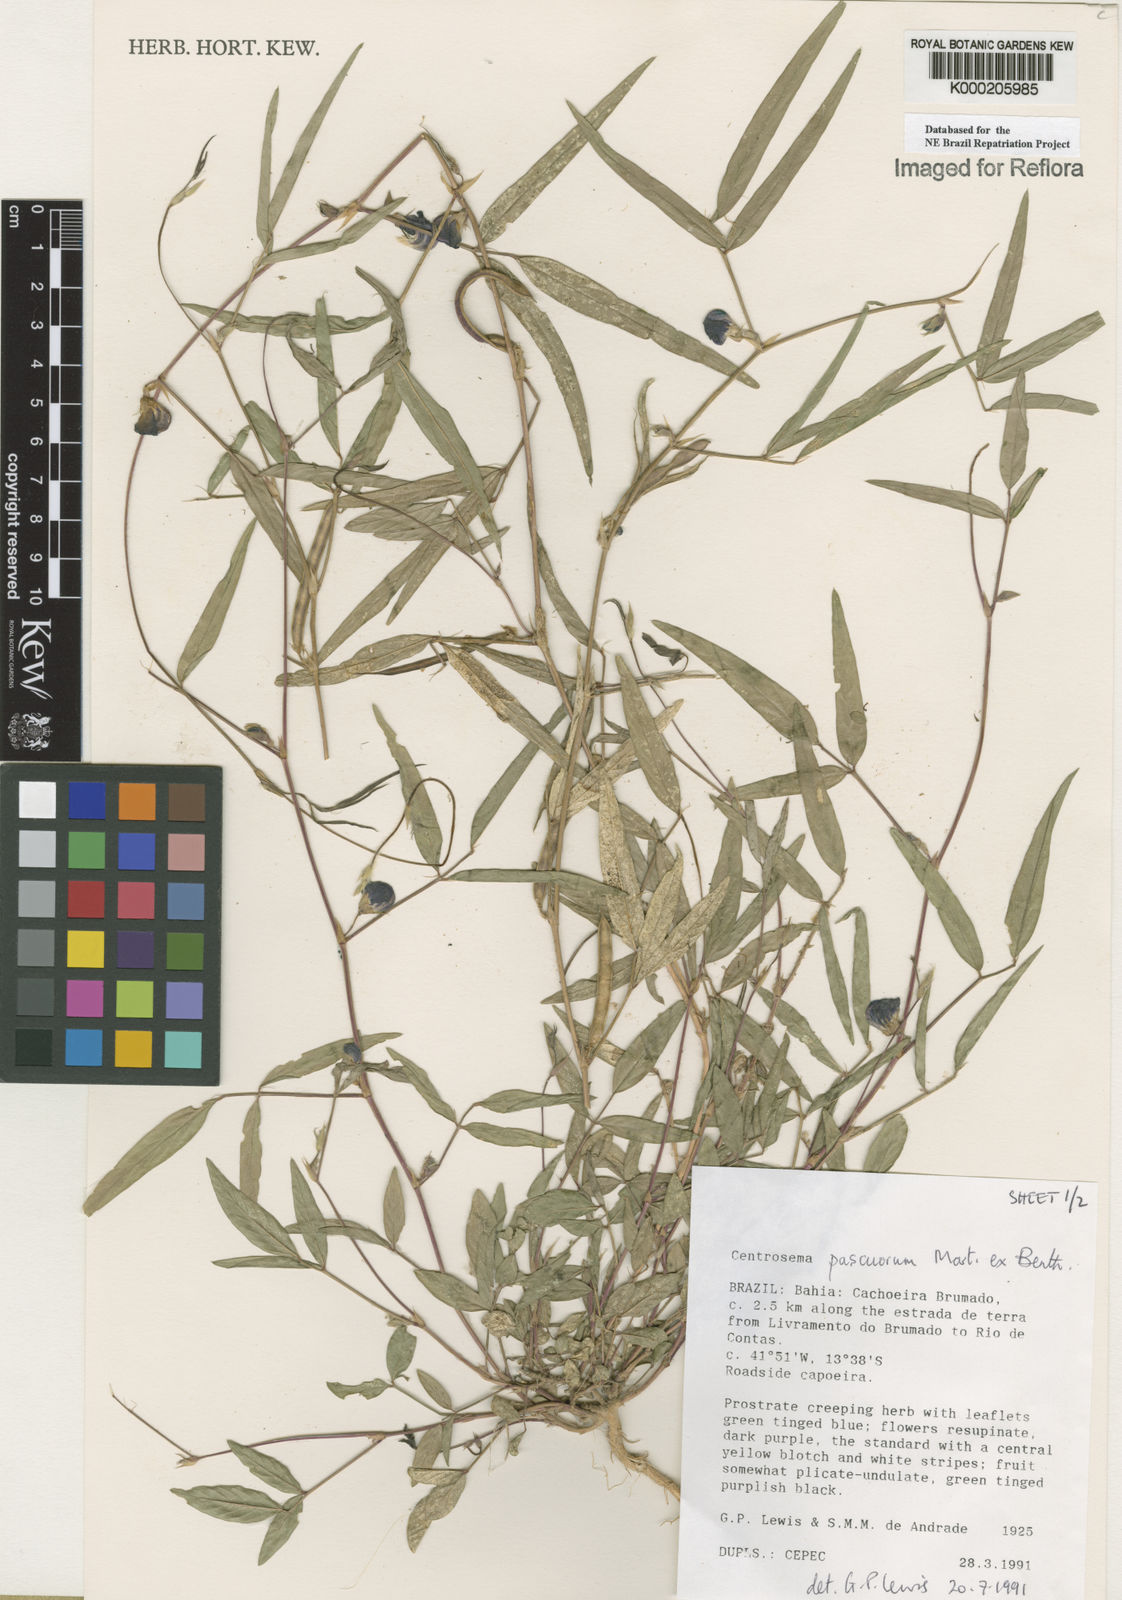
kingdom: Plantae
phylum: Tracheophyta
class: Magnoliopsida
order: Fabales
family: Fabaceae
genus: Centrosema
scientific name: Centrosema pascuorum
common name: Centurion
